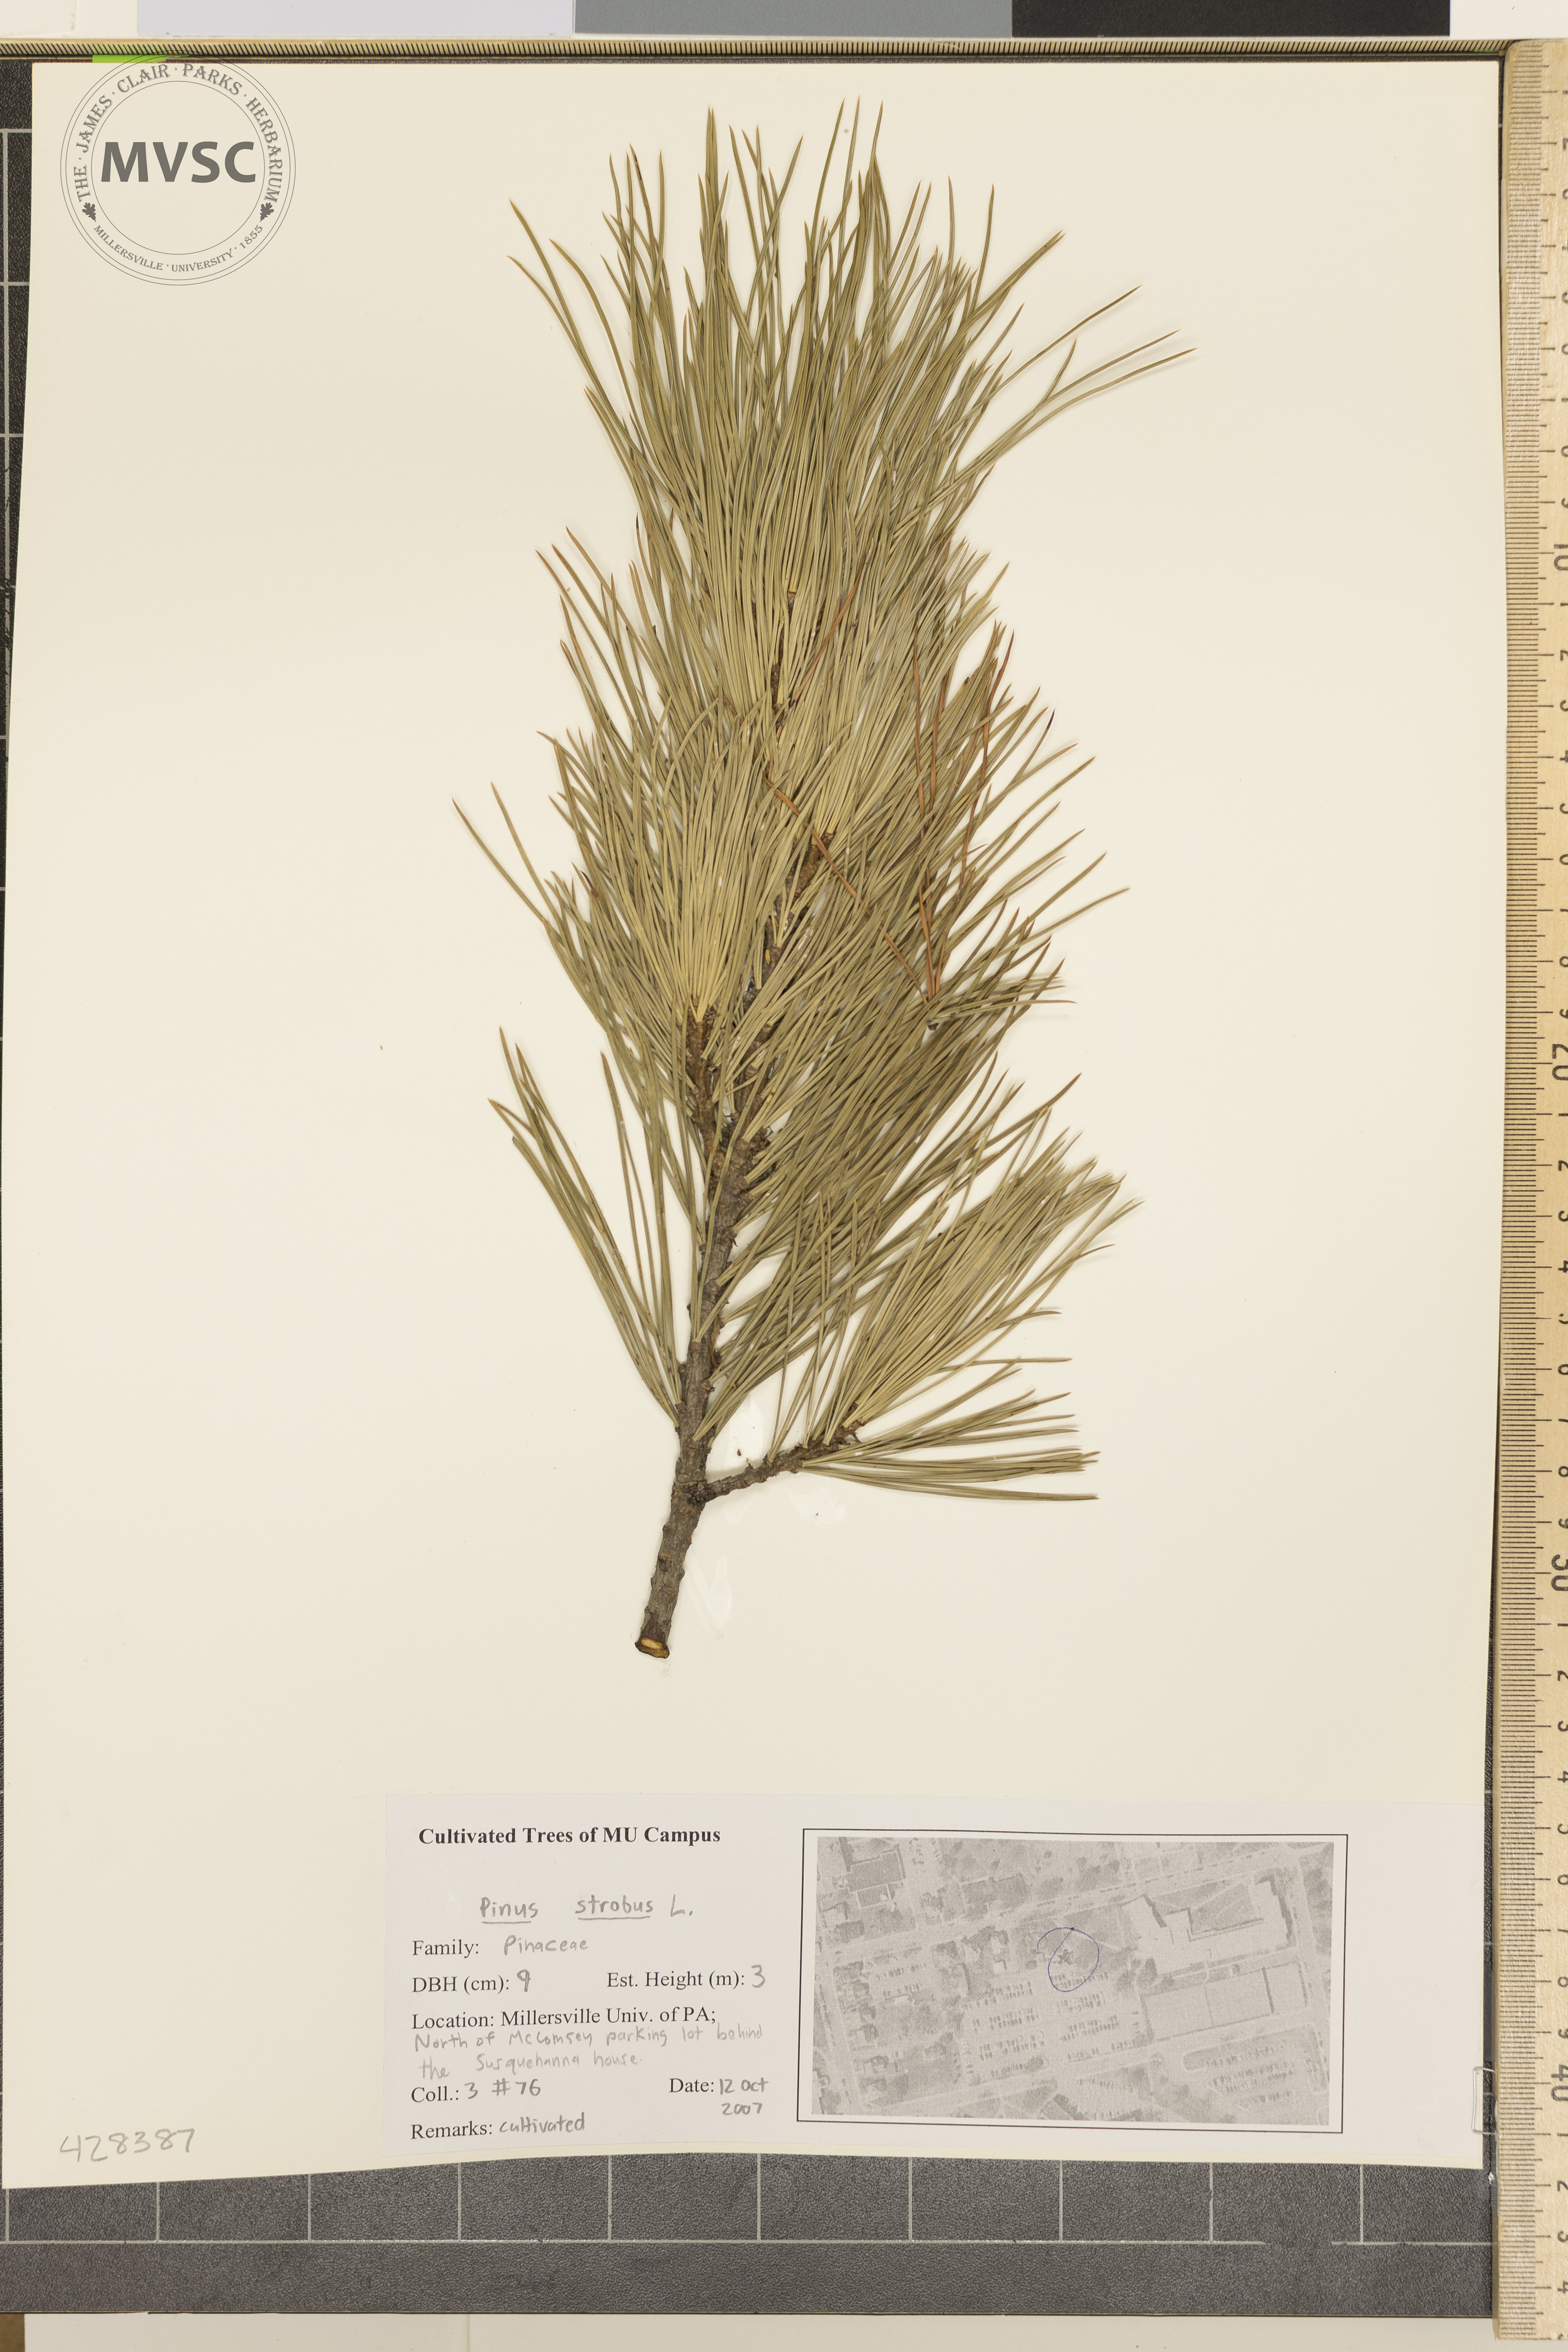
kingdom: Plantae
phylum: Tracheophyta
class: Pinopsida
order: Pinales
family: Pinaceae
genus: Pinus
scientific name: Pinus strobus
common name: Eastern White Pine
